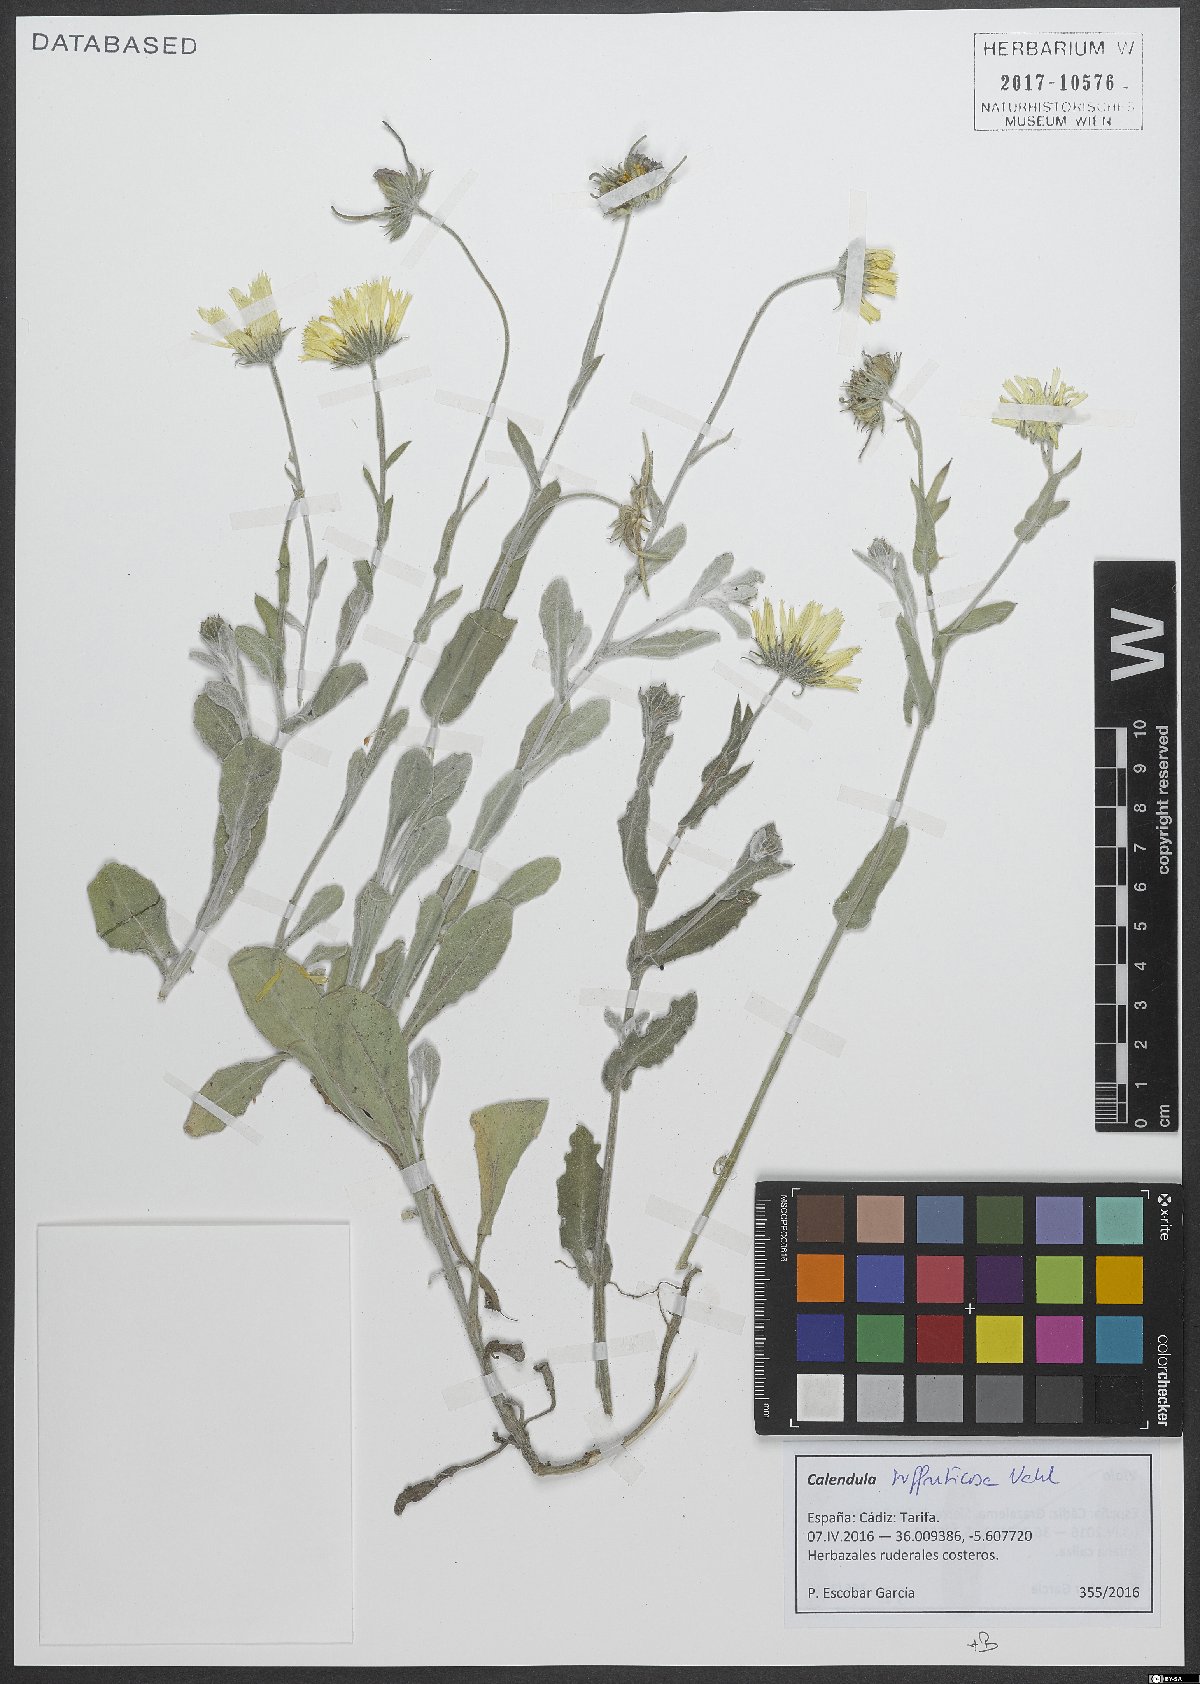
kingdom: Plantae
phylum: Tracheophyta
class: Magnoliopsida
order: Asterales
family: Asteraceae
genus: Calendula
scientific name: Calendula suffruticosa
